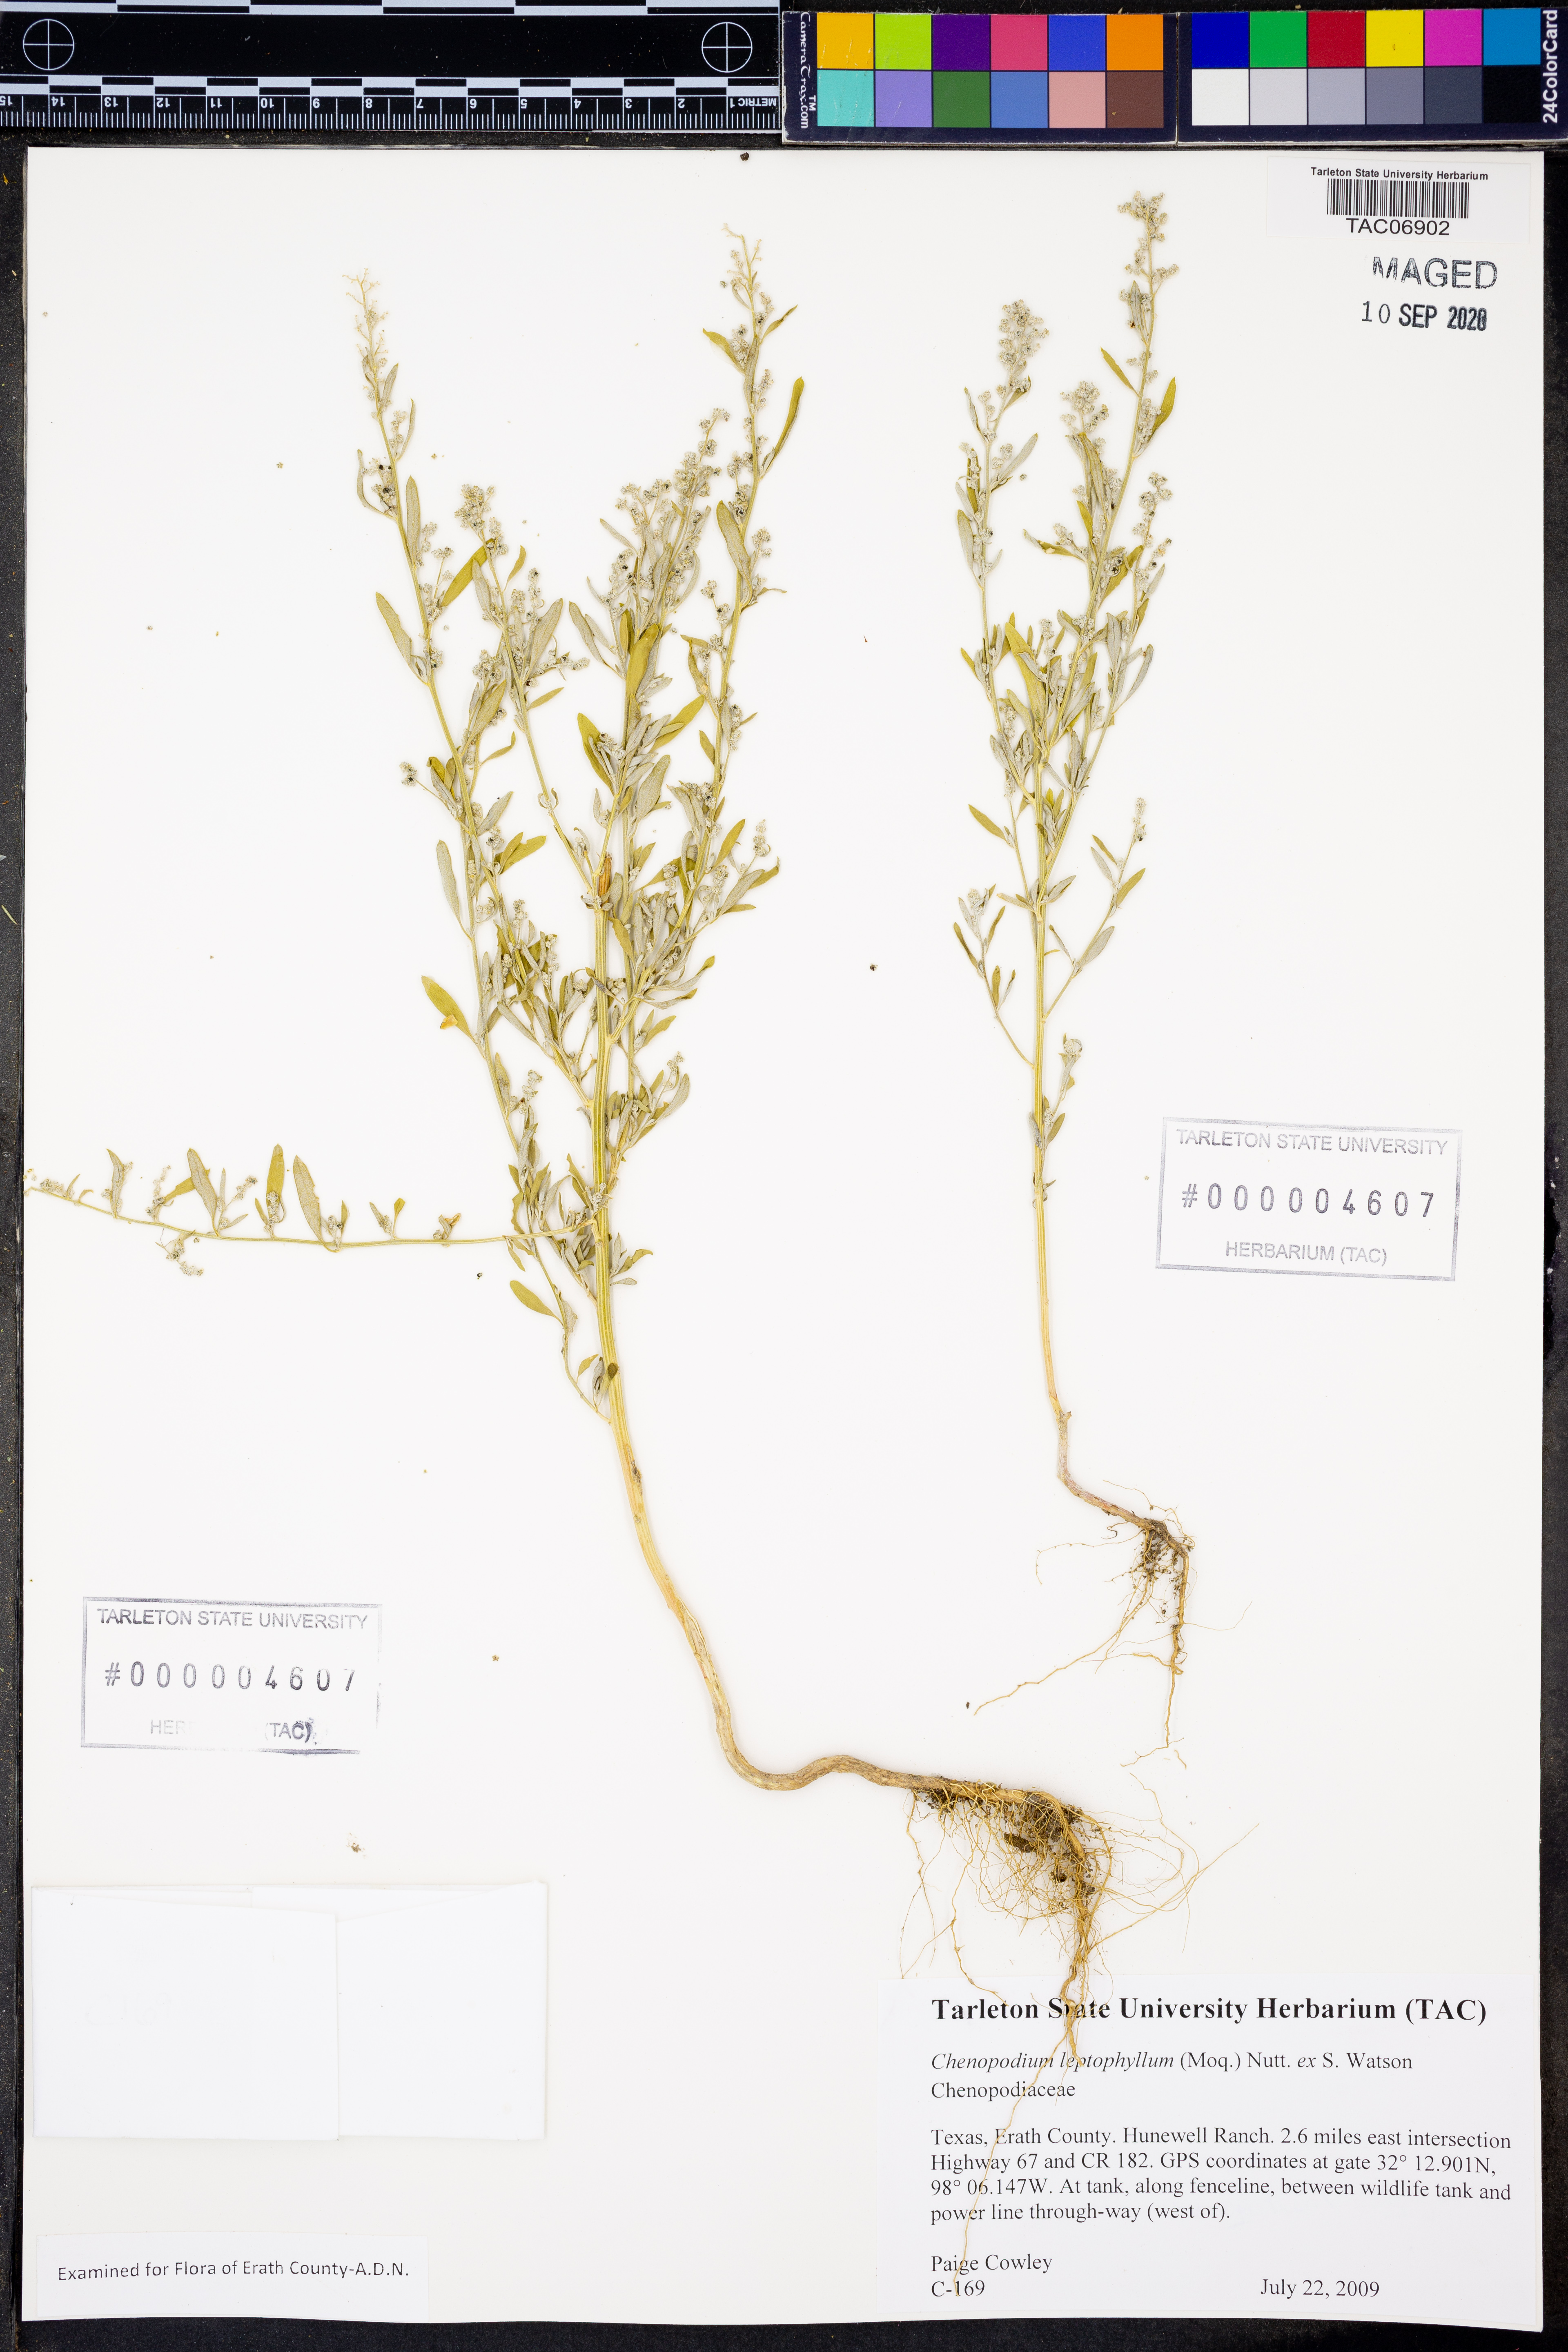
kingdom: Plantae
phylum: Tracheophyta
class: Magnoliopsida
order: Caryophyllales
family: Amaranthaceae
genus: Chenopodium
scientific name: Chenopodium leptophyllum
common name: Narrow-leaf goosefoot
